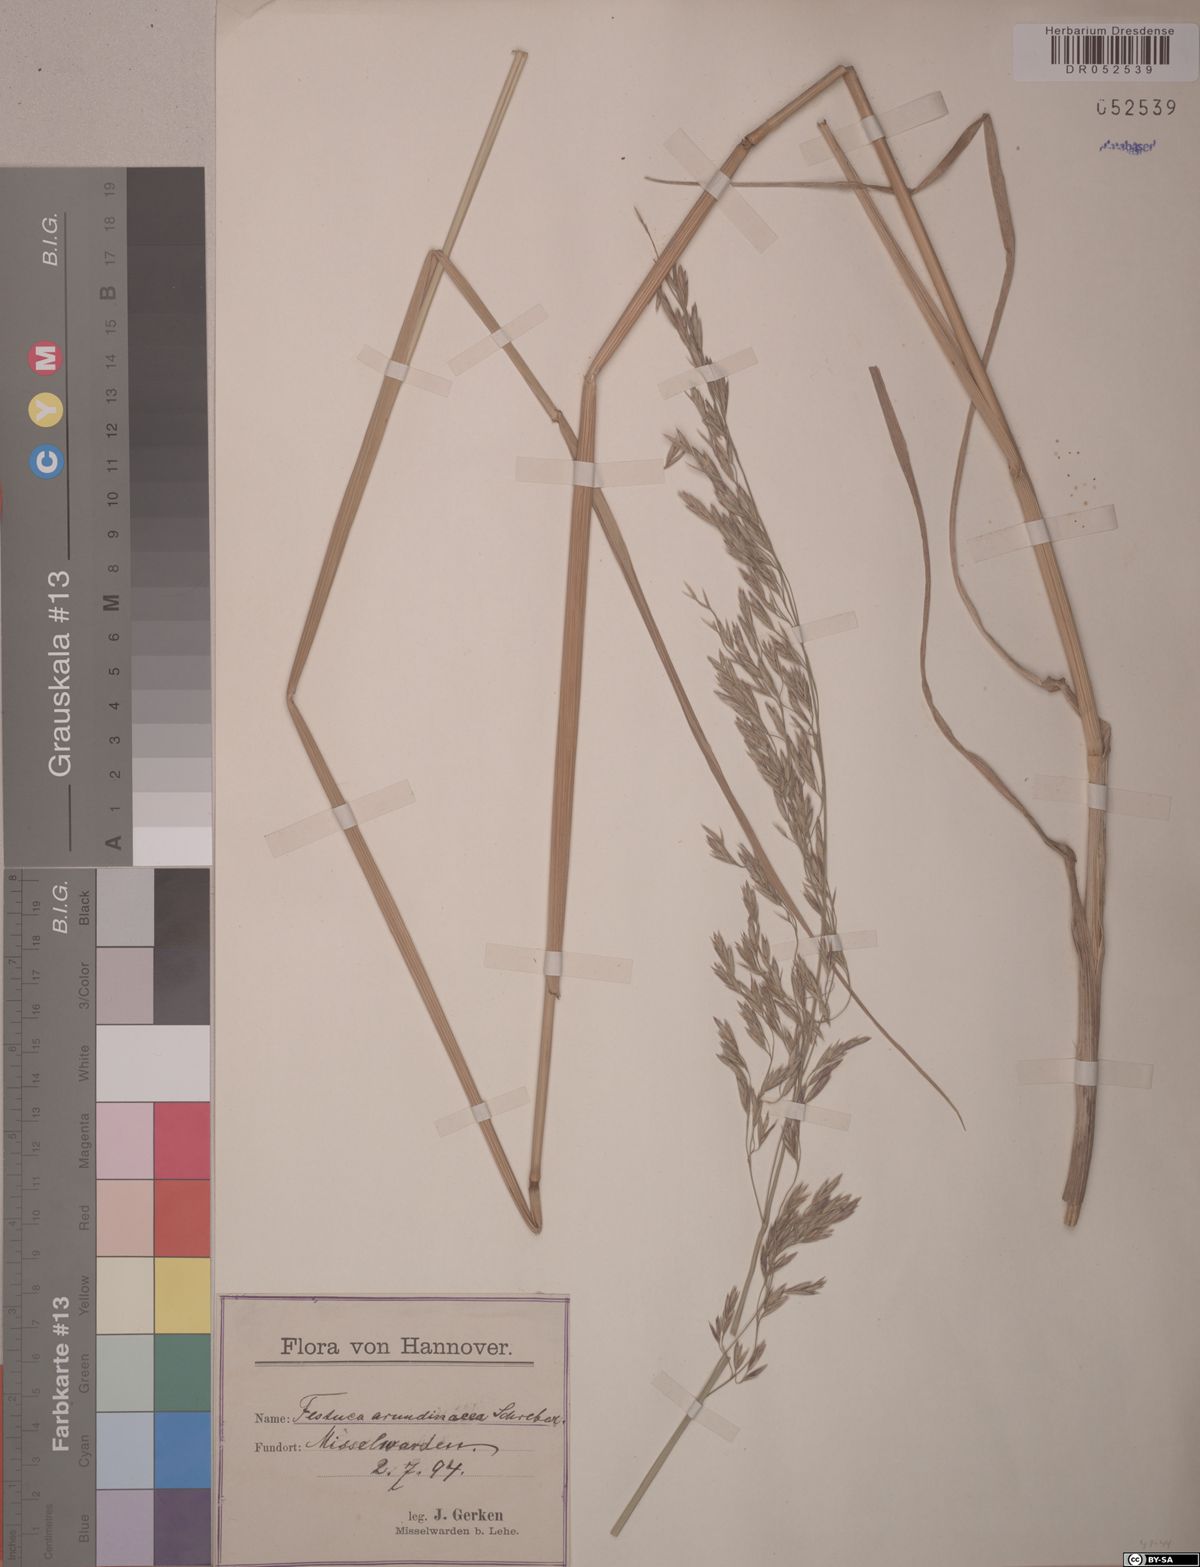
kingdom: Plantae
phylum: Tracheophyta
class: Liliopsida
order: Poales
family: Poaceae
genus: Lolium
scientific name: Lolium arundinaceum
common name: Reed fescue
